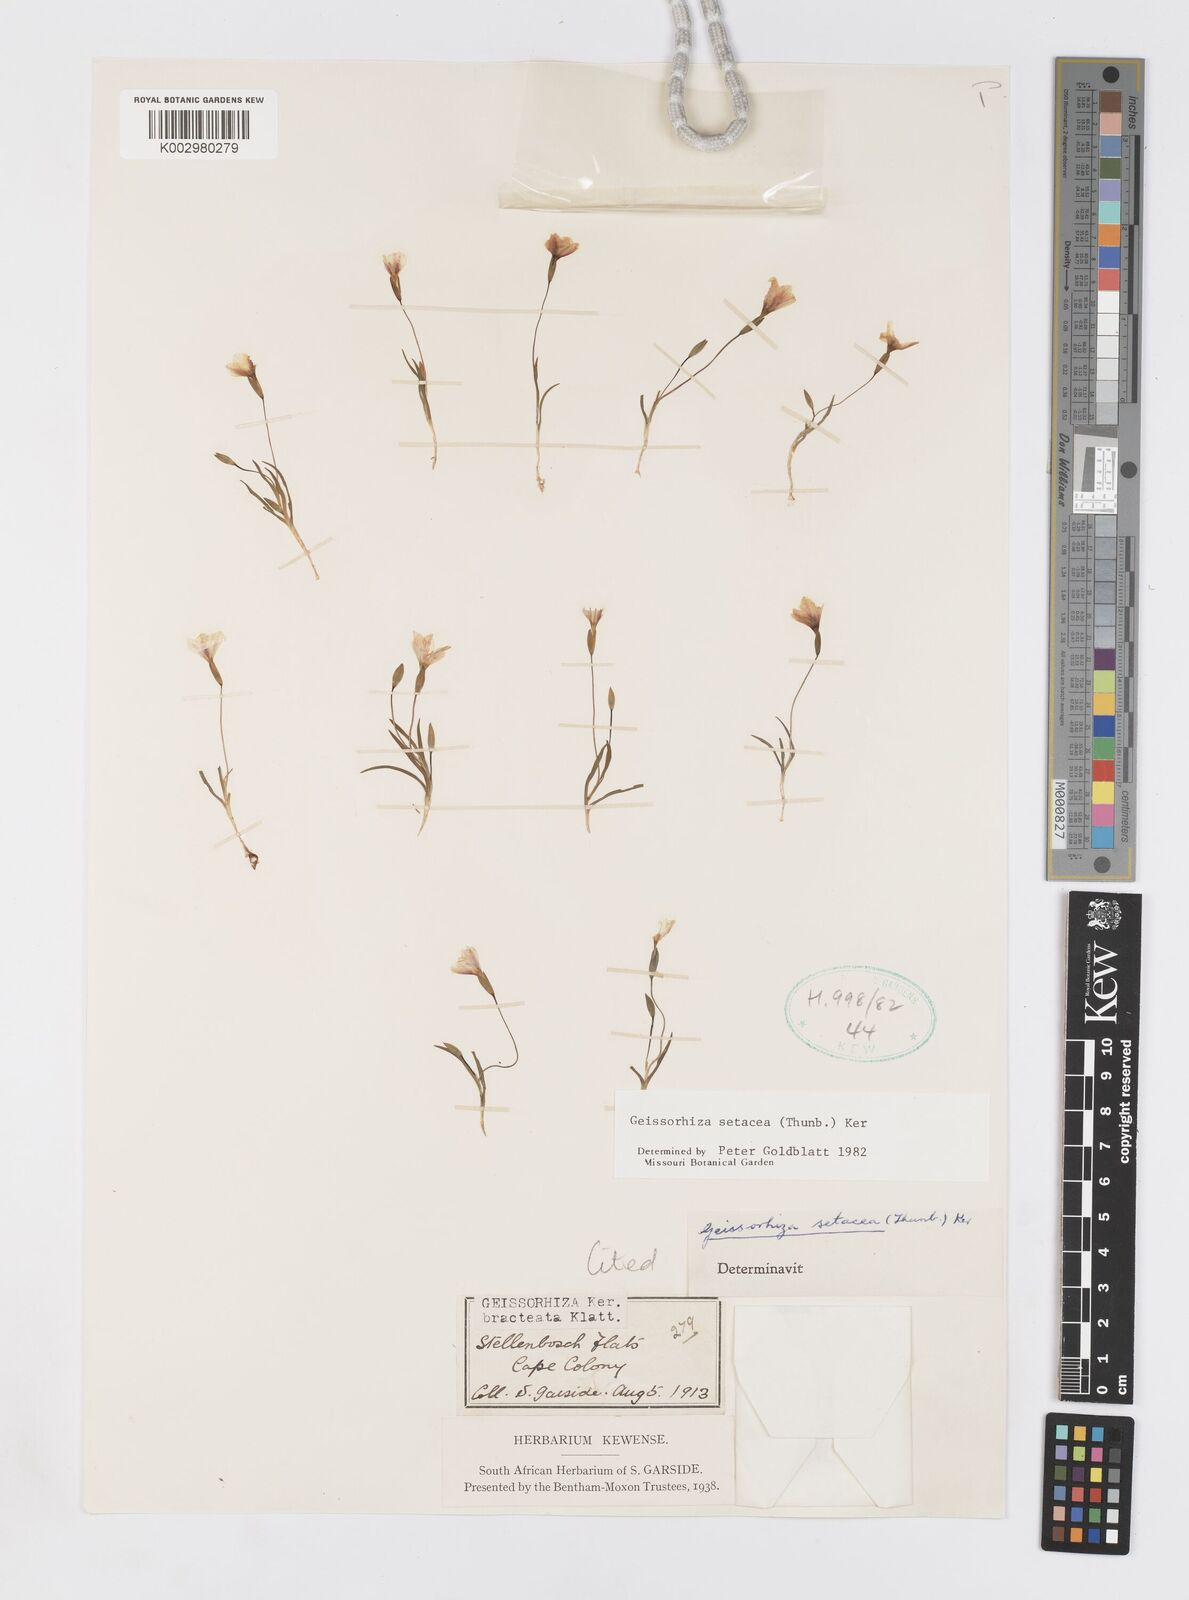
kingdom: Plantae
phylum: Tracheophyta
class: Liliopsida
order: Asparagales
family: Iridaceae
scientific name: Iridaceae
